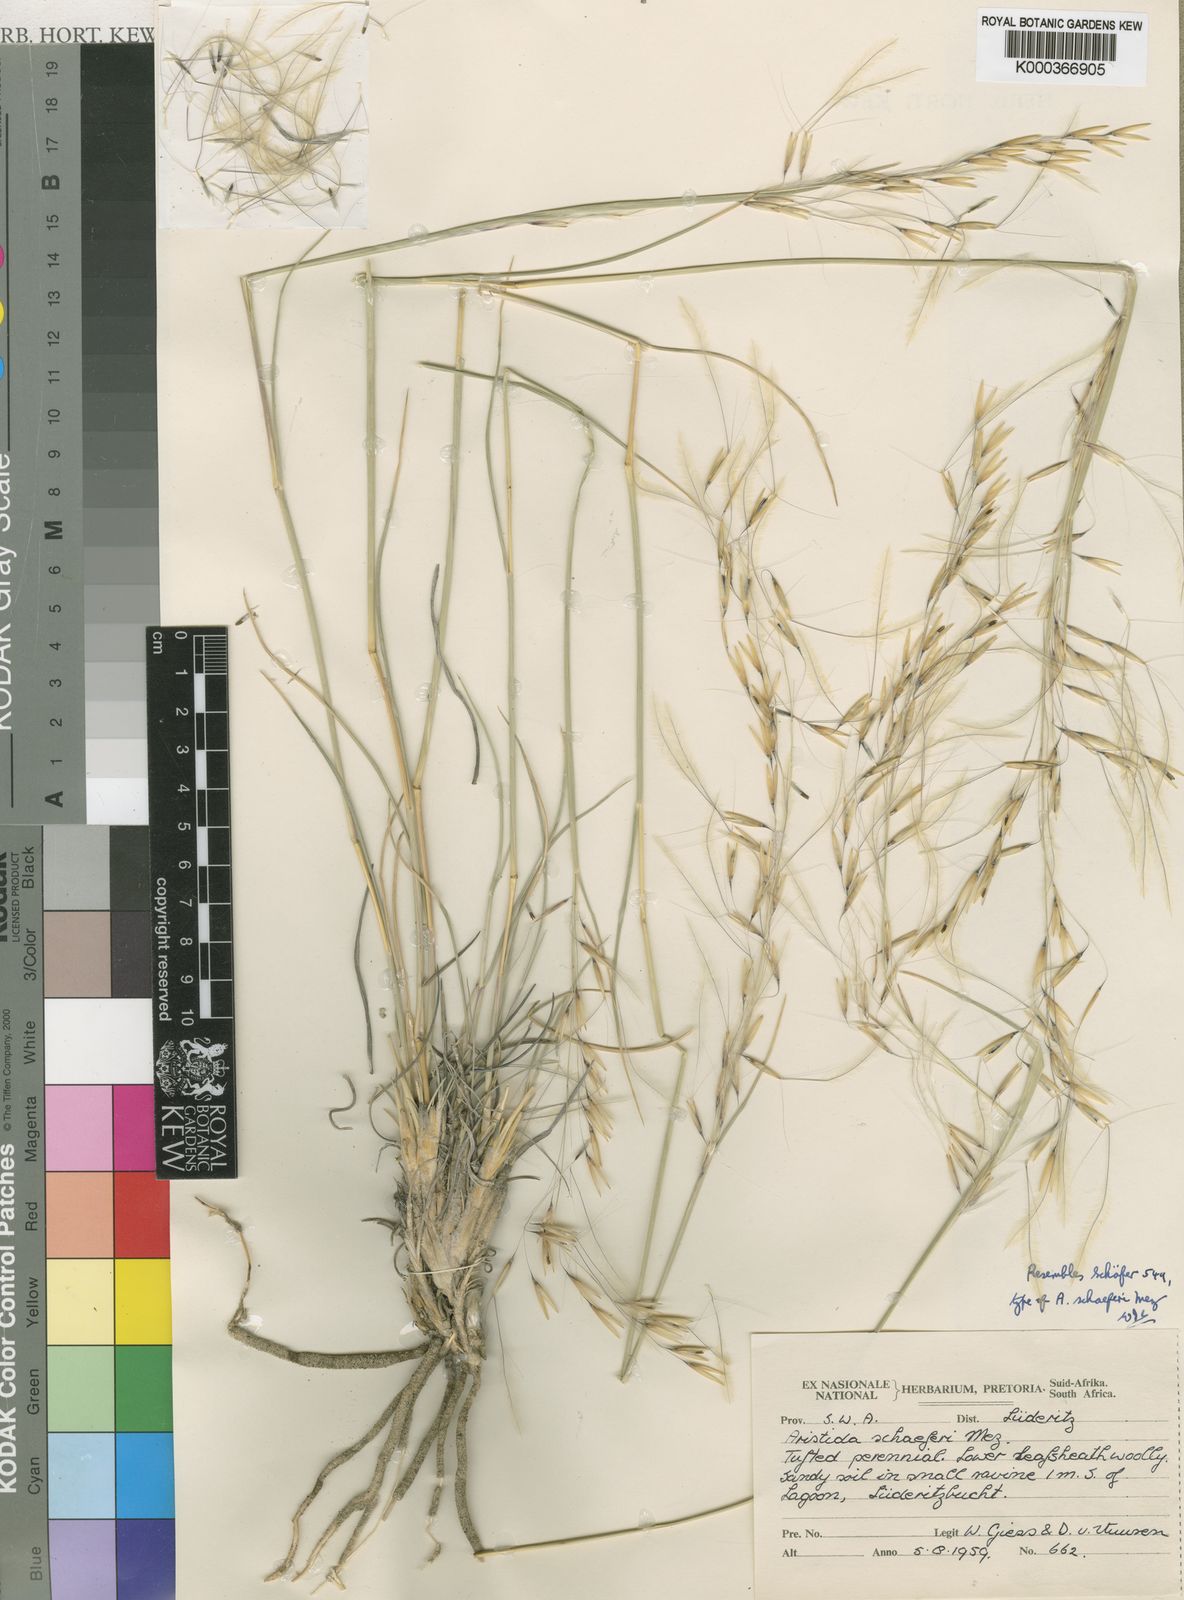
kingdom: Plantae
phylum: Tracheophyta
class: Liliopsida
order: Poales
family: Poaceae
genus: Stipagrostis
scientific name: Stipagrostis schaeferi
